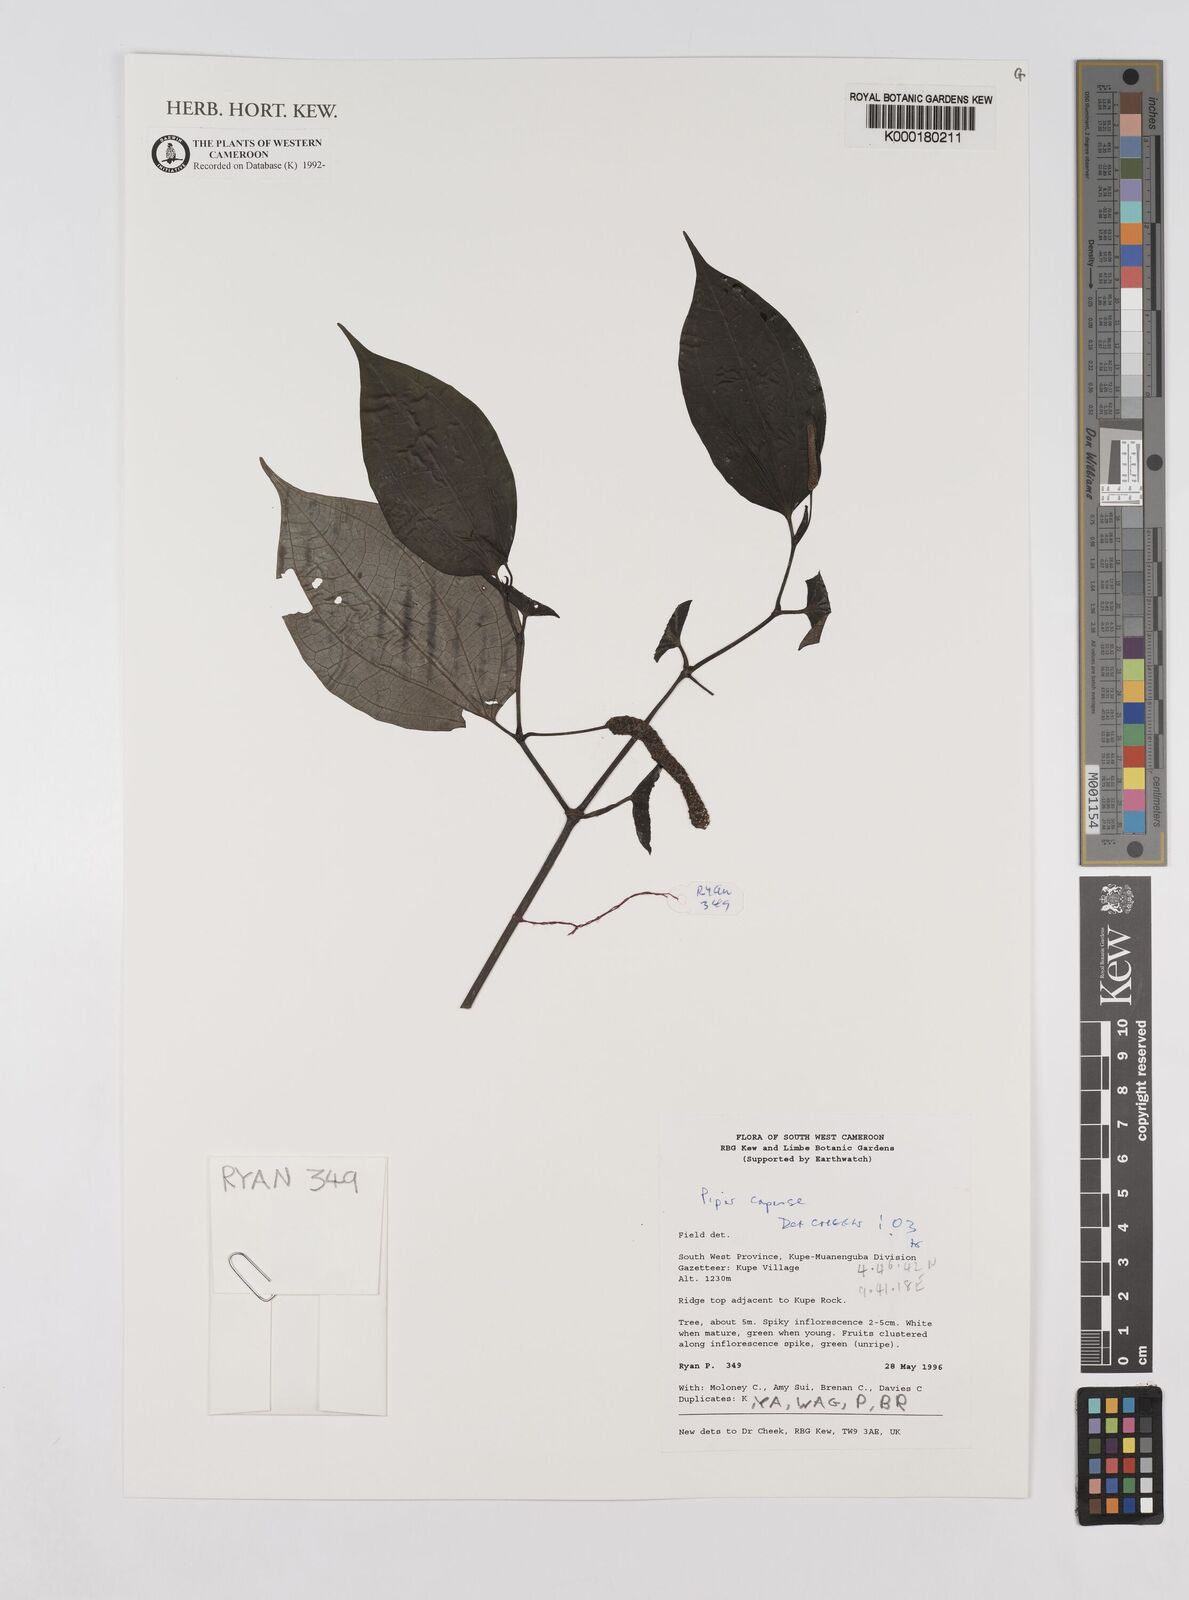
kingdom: Plantae
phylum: Tracheophyta
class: Magnoliopsida
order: Piperales
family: Piperaceae
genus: Piper
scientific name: Piper capense
